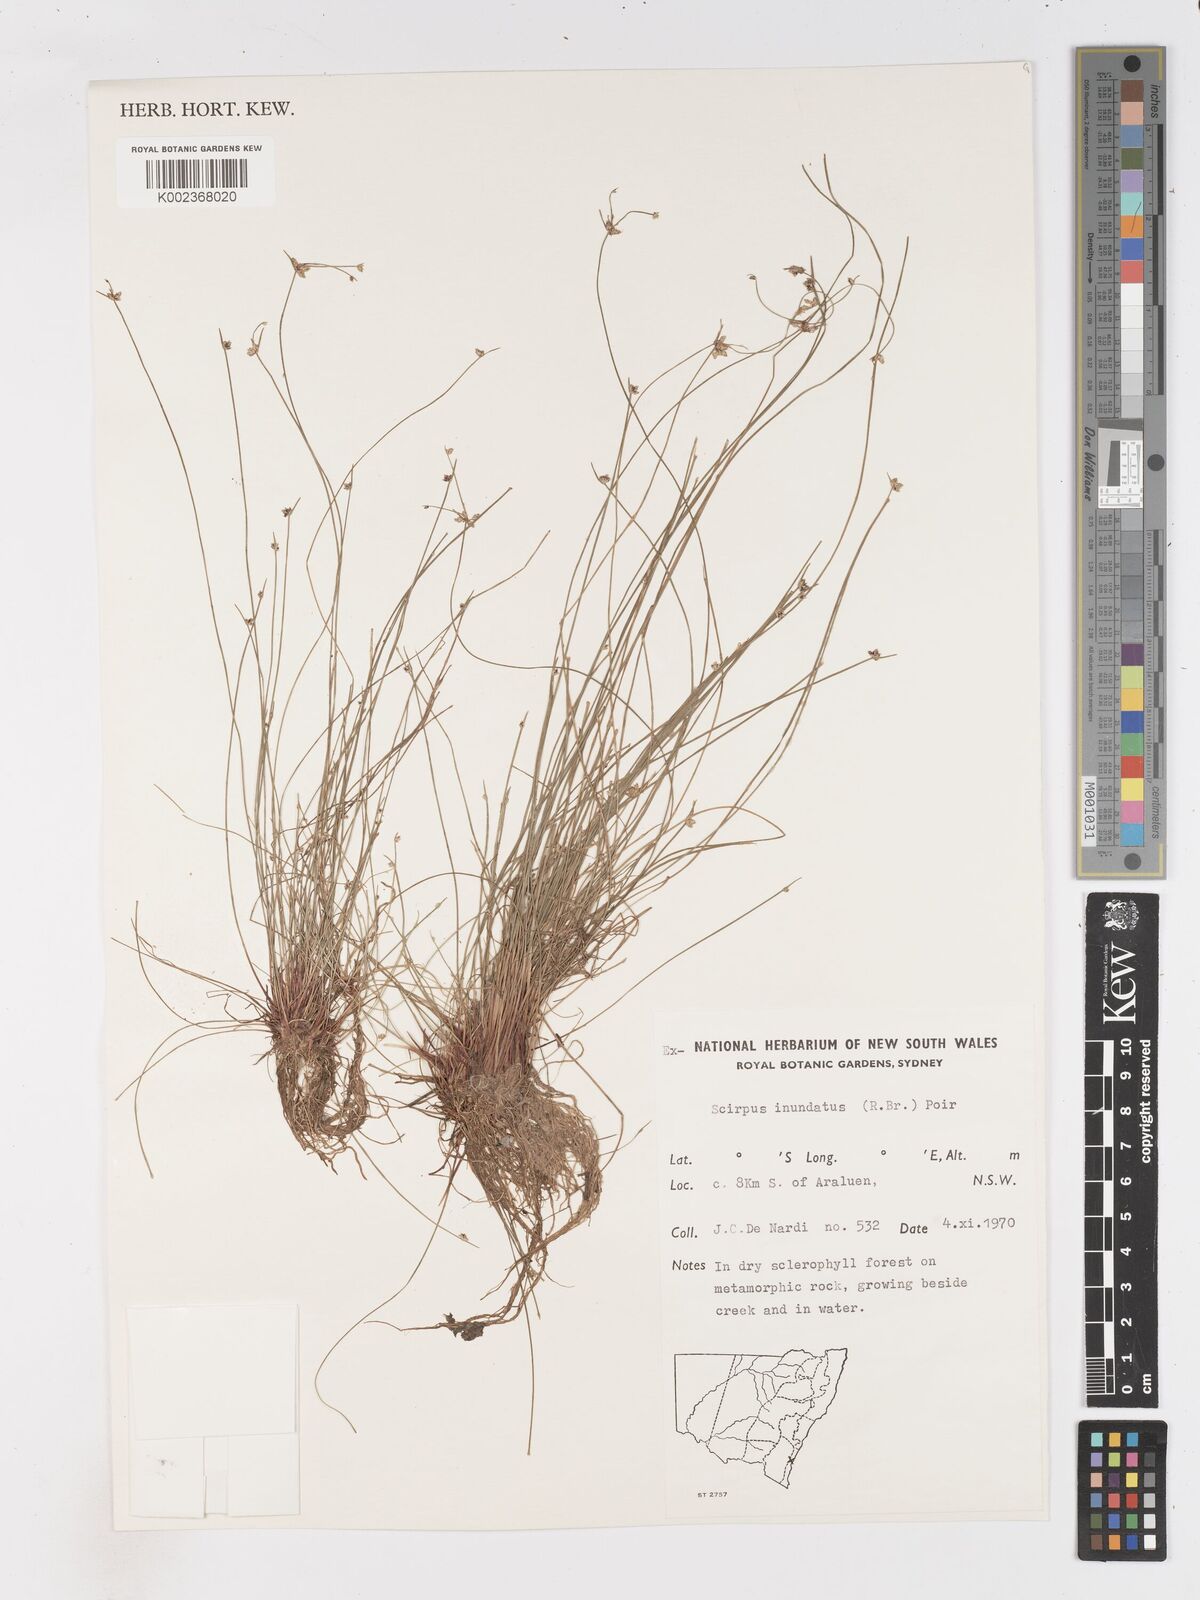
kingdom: Plantae
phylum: Tracheophyta
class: Liliopsida
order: Poales
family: Cyperaceae
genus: Isolepis
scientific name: Isolepis inundata
